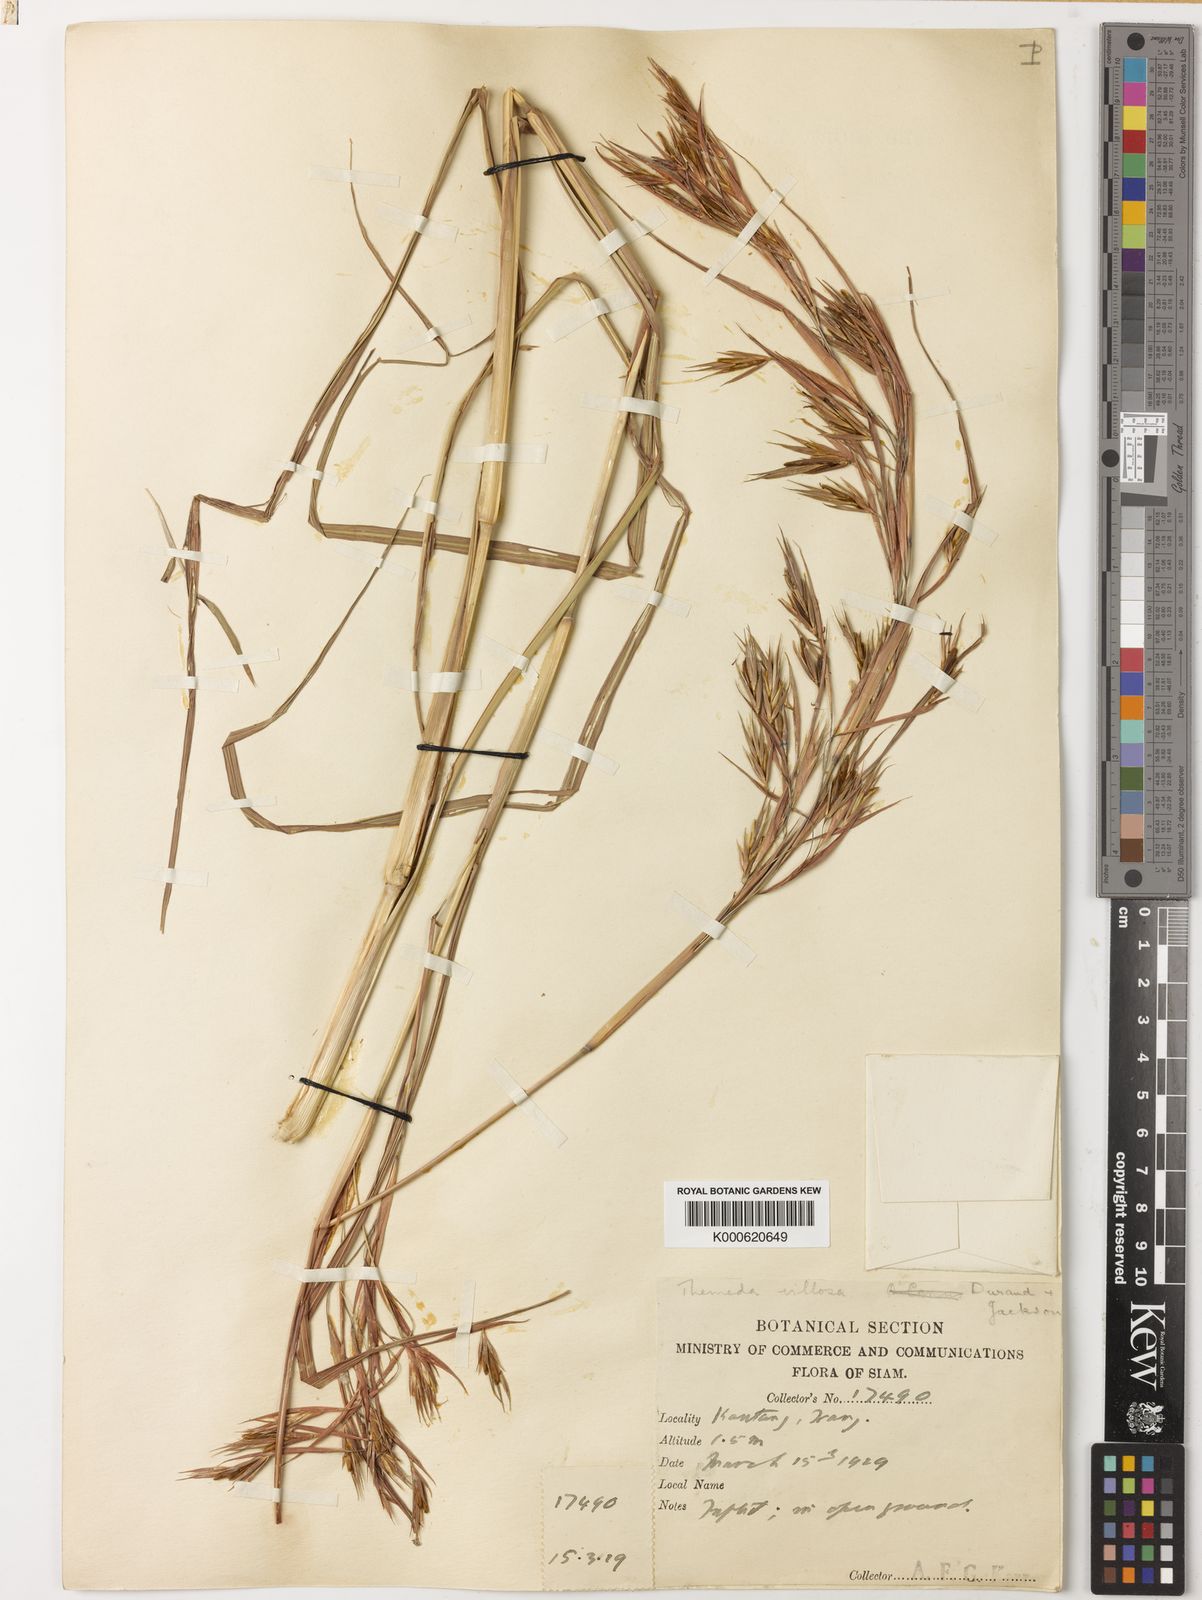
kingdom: Plantae
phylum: Tracheophyta
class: Liliopsida
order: Poales
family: Poaceae
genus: Themeda
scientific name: Themeda villosa
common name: Silky kangaroo grass
